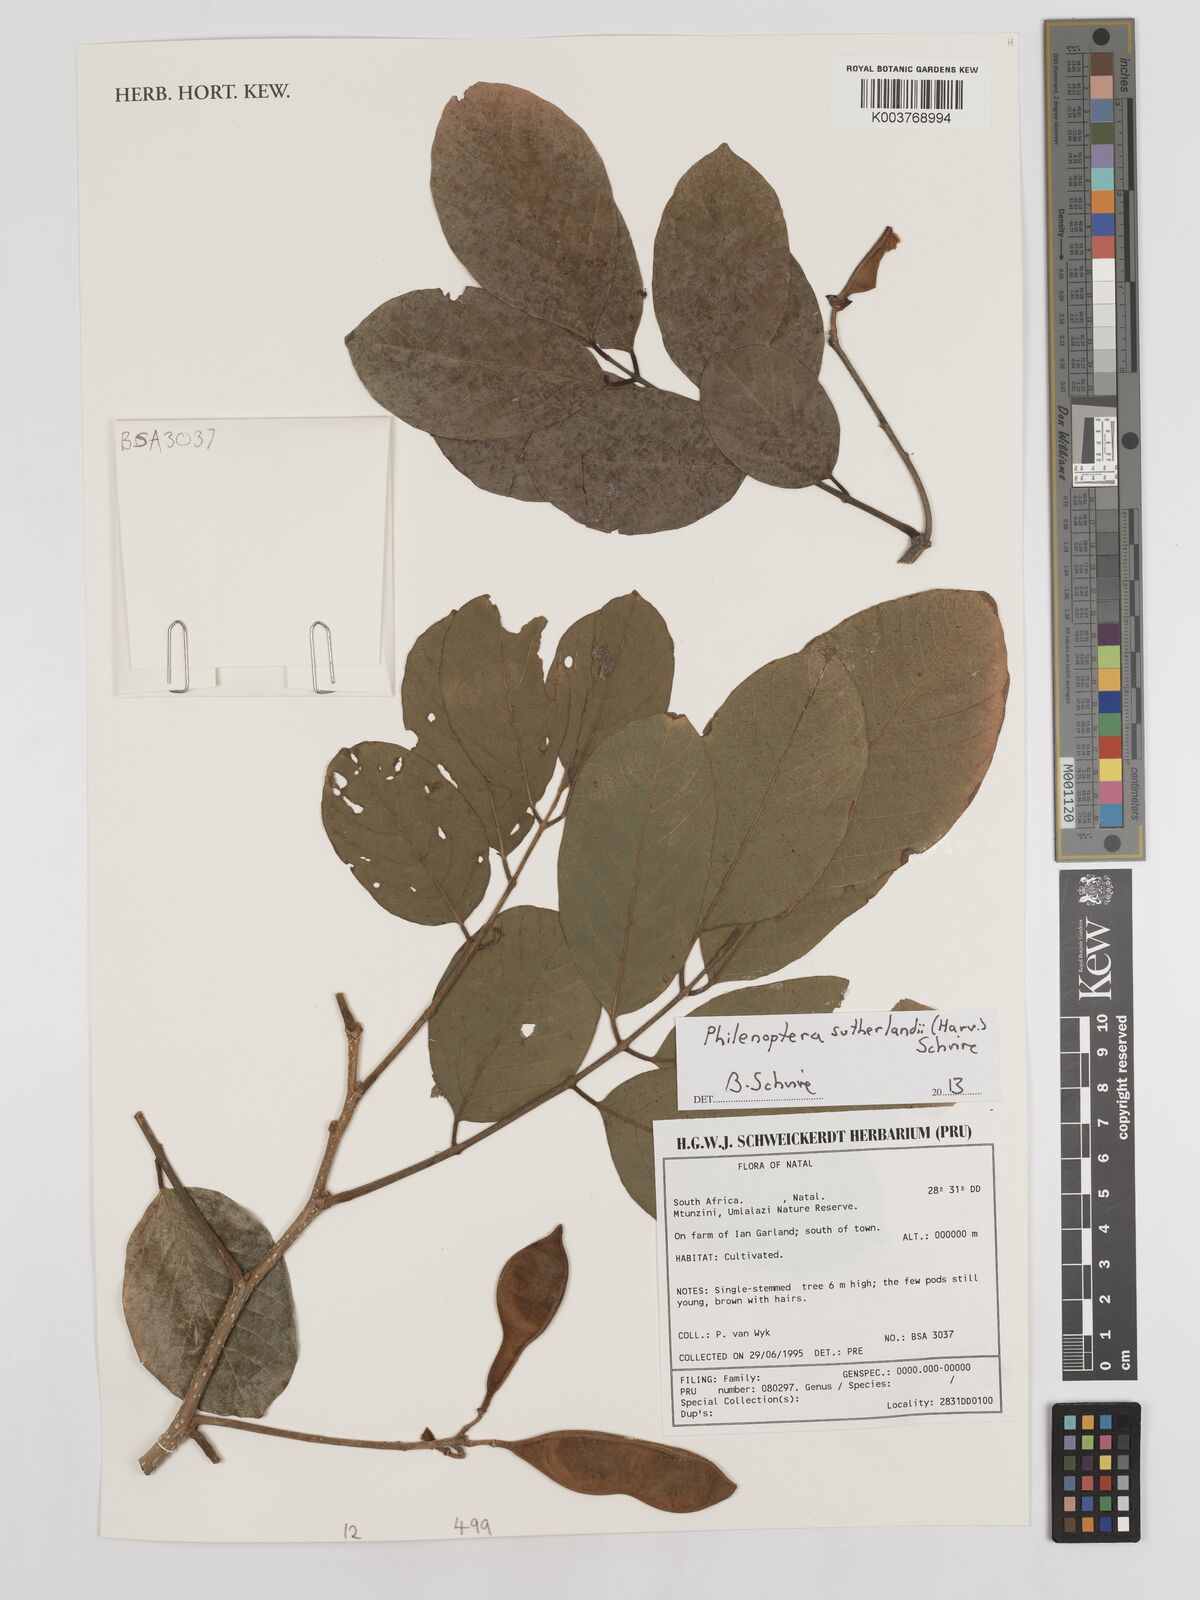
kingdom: Plantae
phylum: Tracheophyta
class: Magnoliopsida
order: Fabales
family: Fabaceae
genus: Philenoptera
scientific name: Philenoptera sutherlandii
